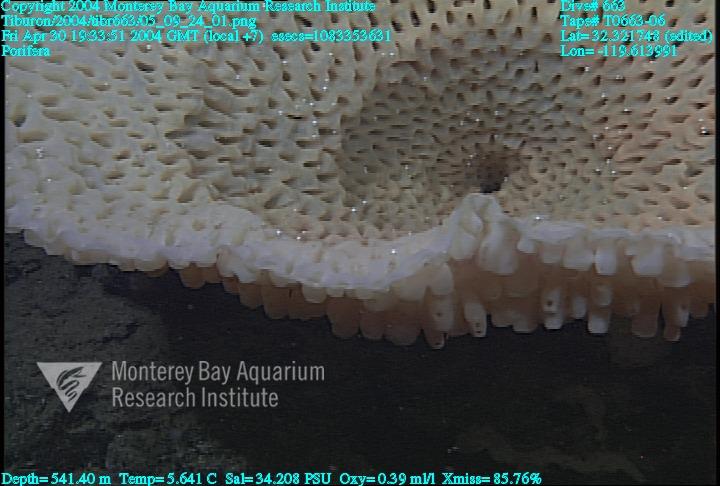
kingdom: Animalia
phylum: Porifera
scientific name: Porifera
